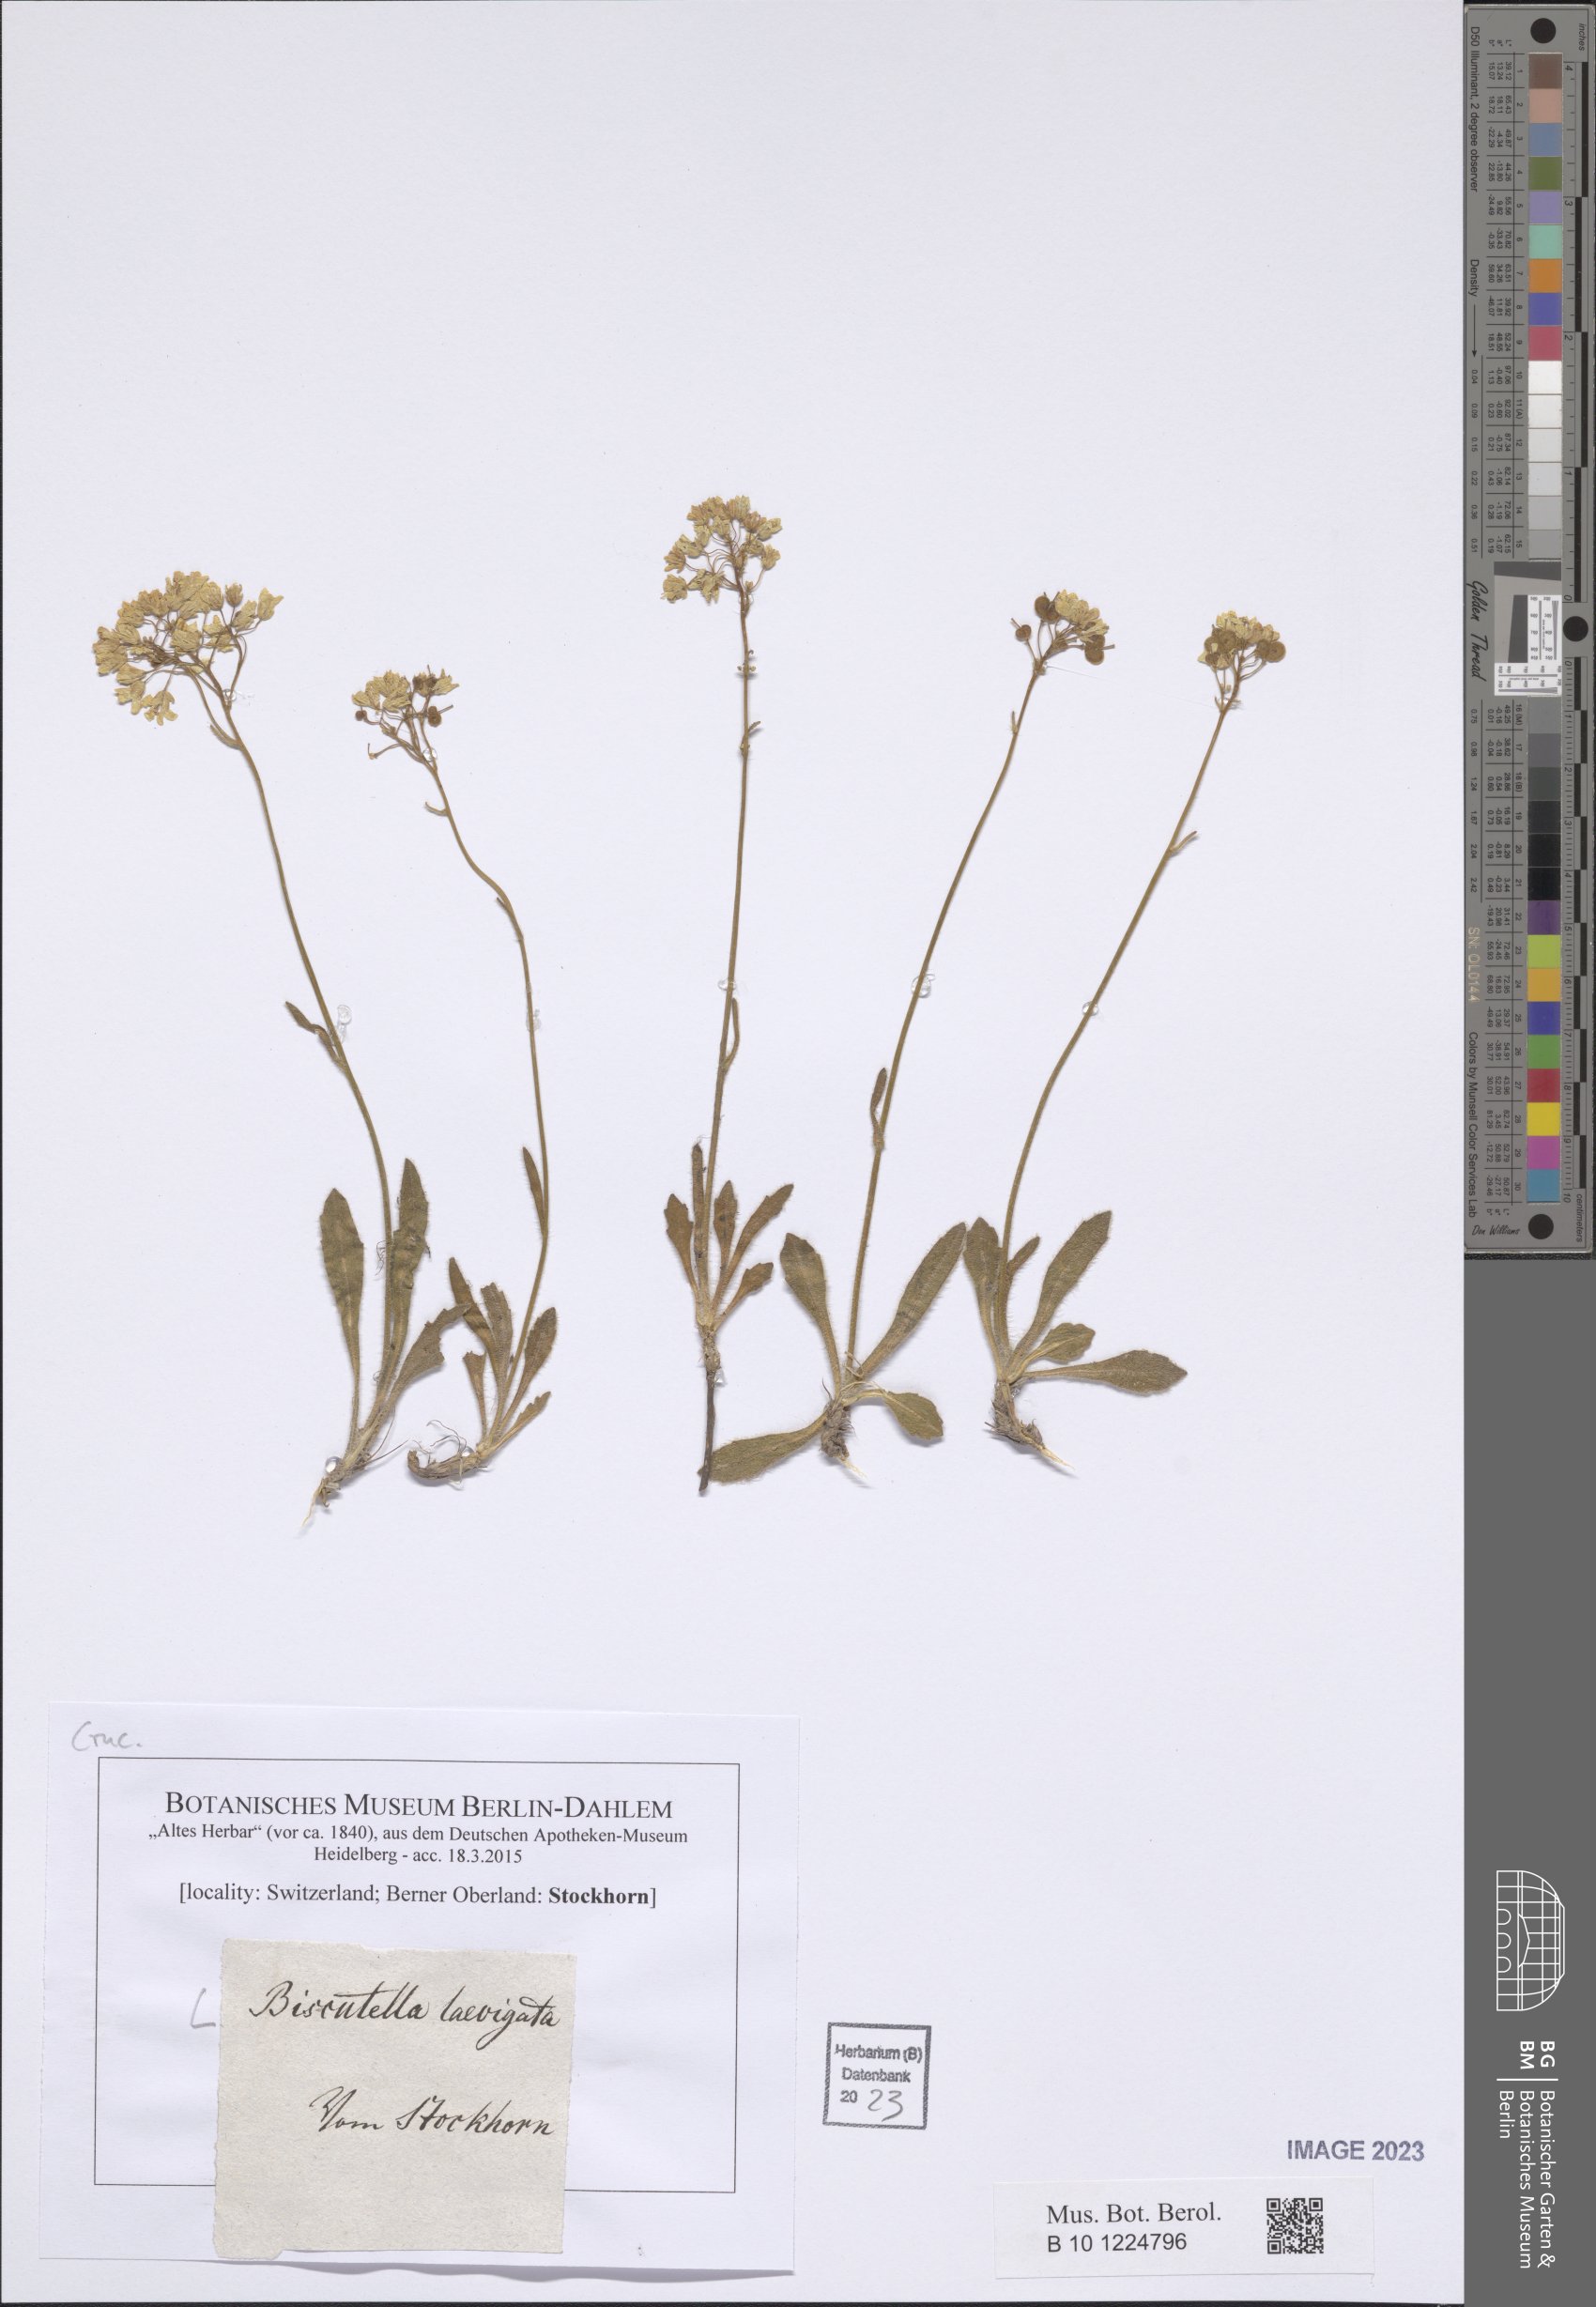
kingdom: Plantae
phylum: Tracheophyta
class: Magnoliopsida
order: Brassicales
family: Brassicaceae
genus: Biscutella
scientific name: Biscutella laevigata
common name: Buckler mustard
